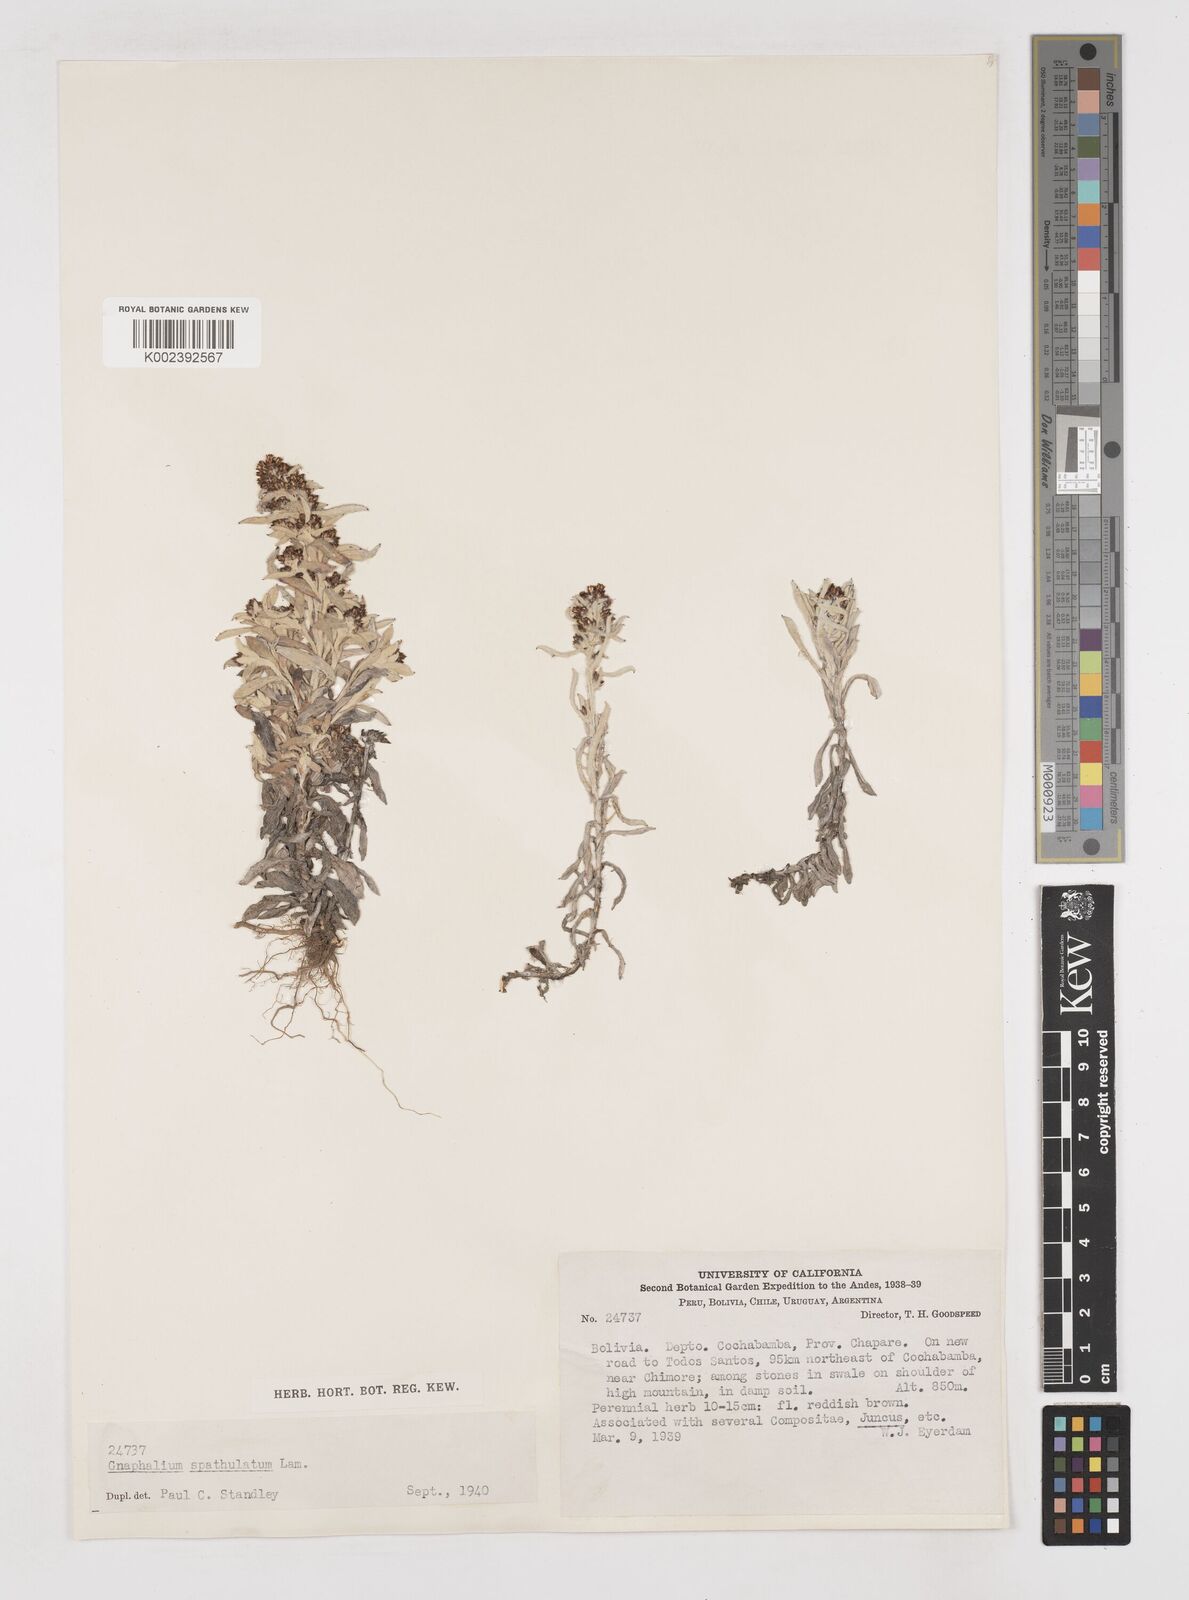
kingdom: Plantae
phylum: Tracheophyta
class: Magnoliopsida
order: Asterales
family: Asteraceae
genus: Pseudognaphalium
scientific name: Pseudognaphalium purpurascens
